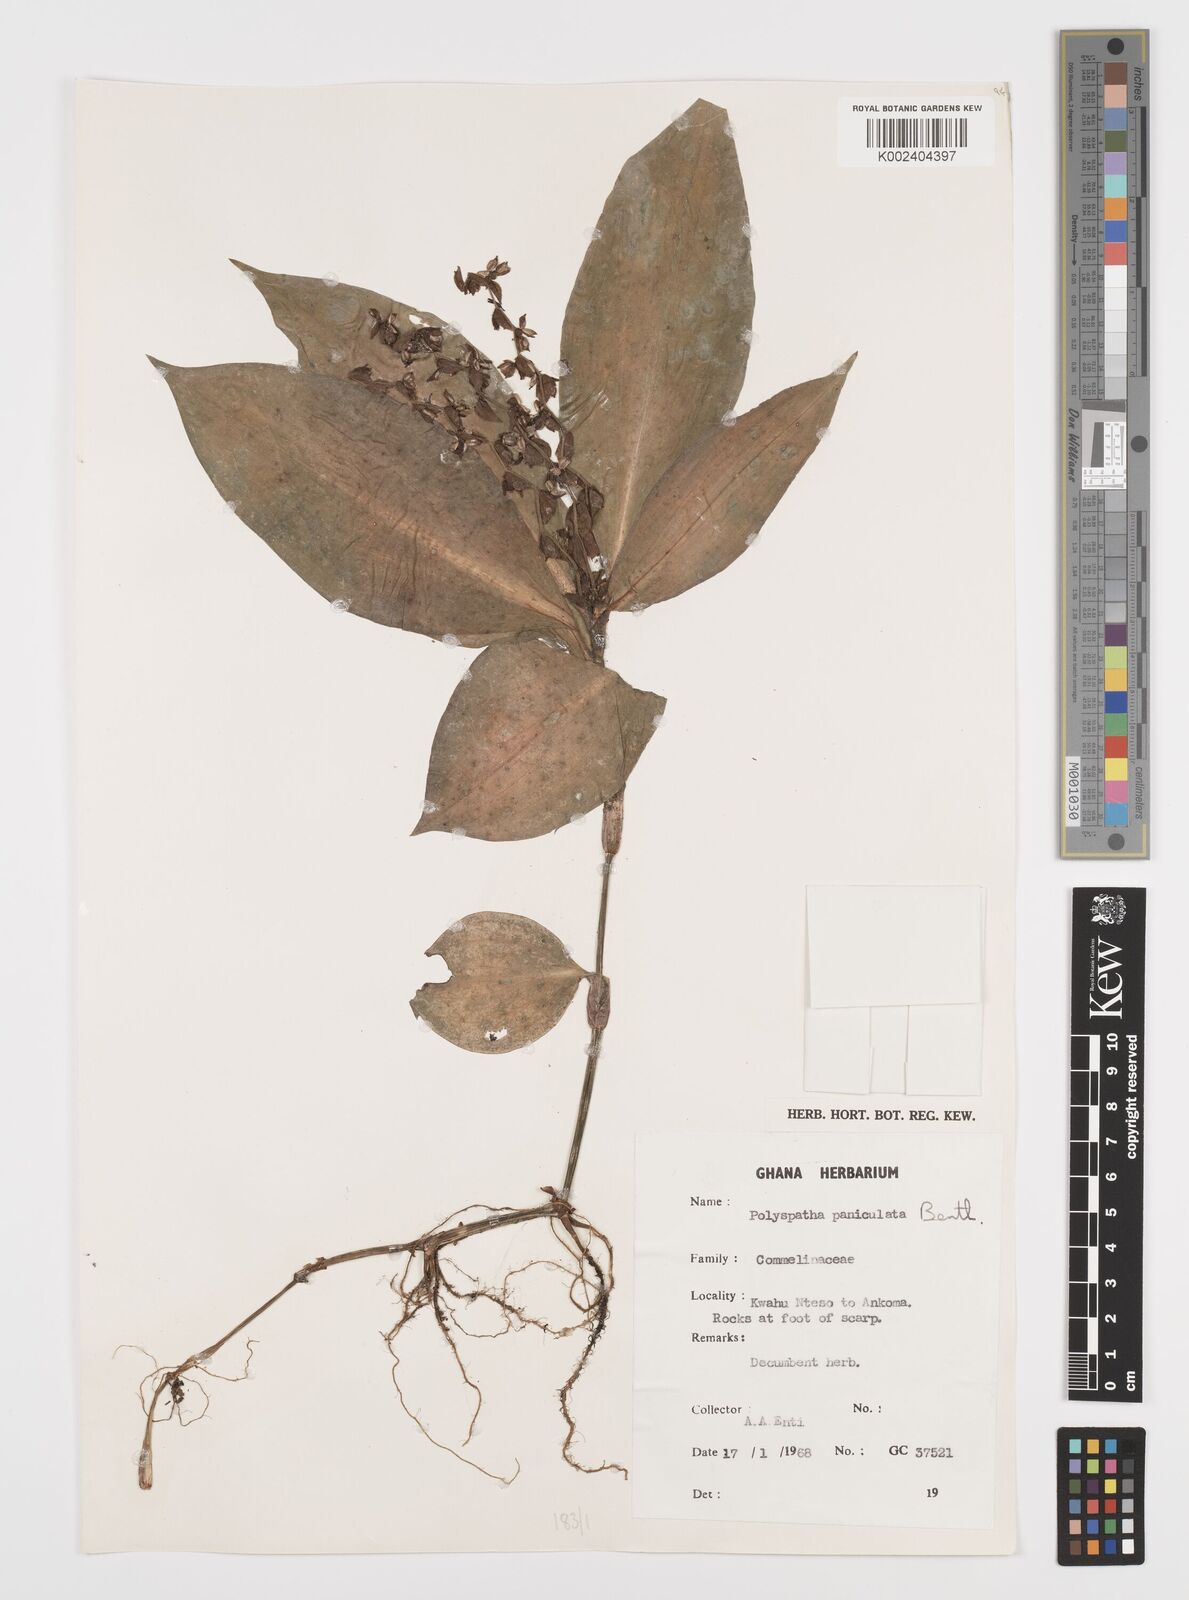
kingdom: Plantae
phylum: Tracheophyta
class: Liliopsida
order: Commelinales
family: Commelinaceae
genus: Polyspatha
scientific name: Polyspatha paniculata
